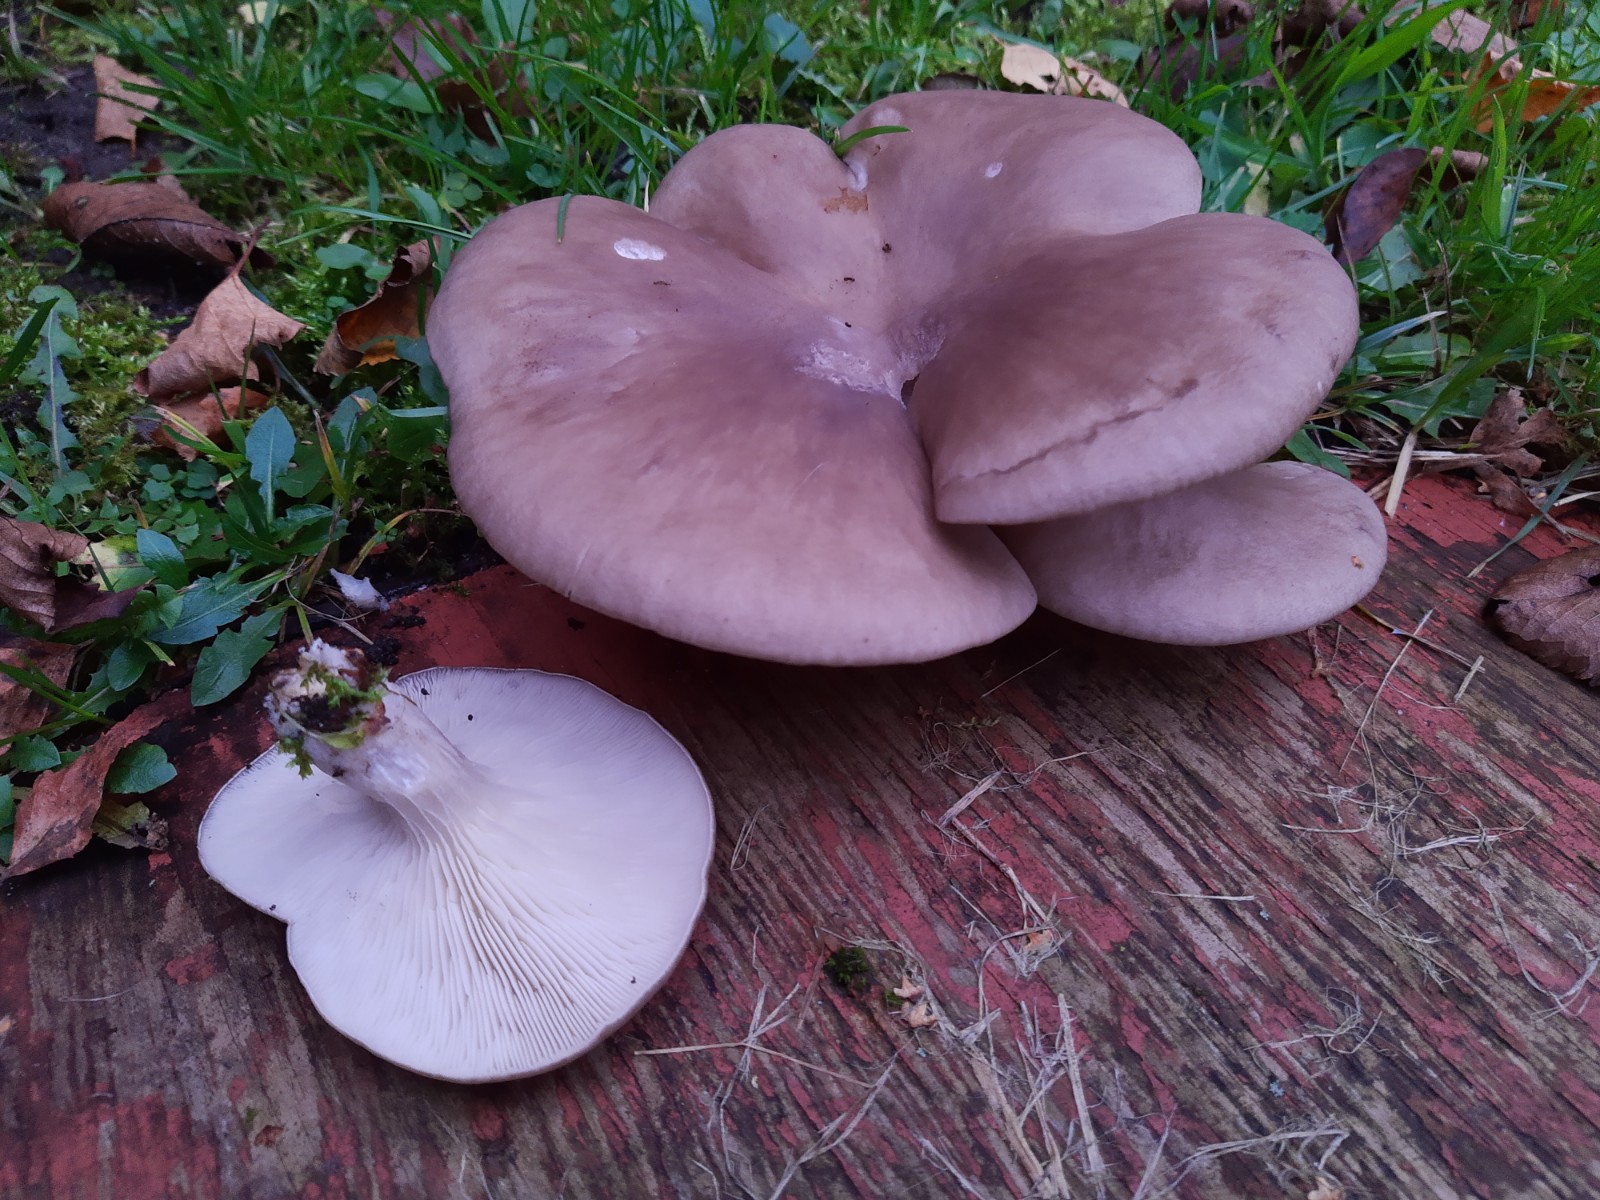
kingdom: Fungi
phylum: Basidiomycota
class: Agaricomycetes
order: Agaricales
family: Pleurotaceae
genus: Pleurotus
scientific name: Pleurotus ostreatus
